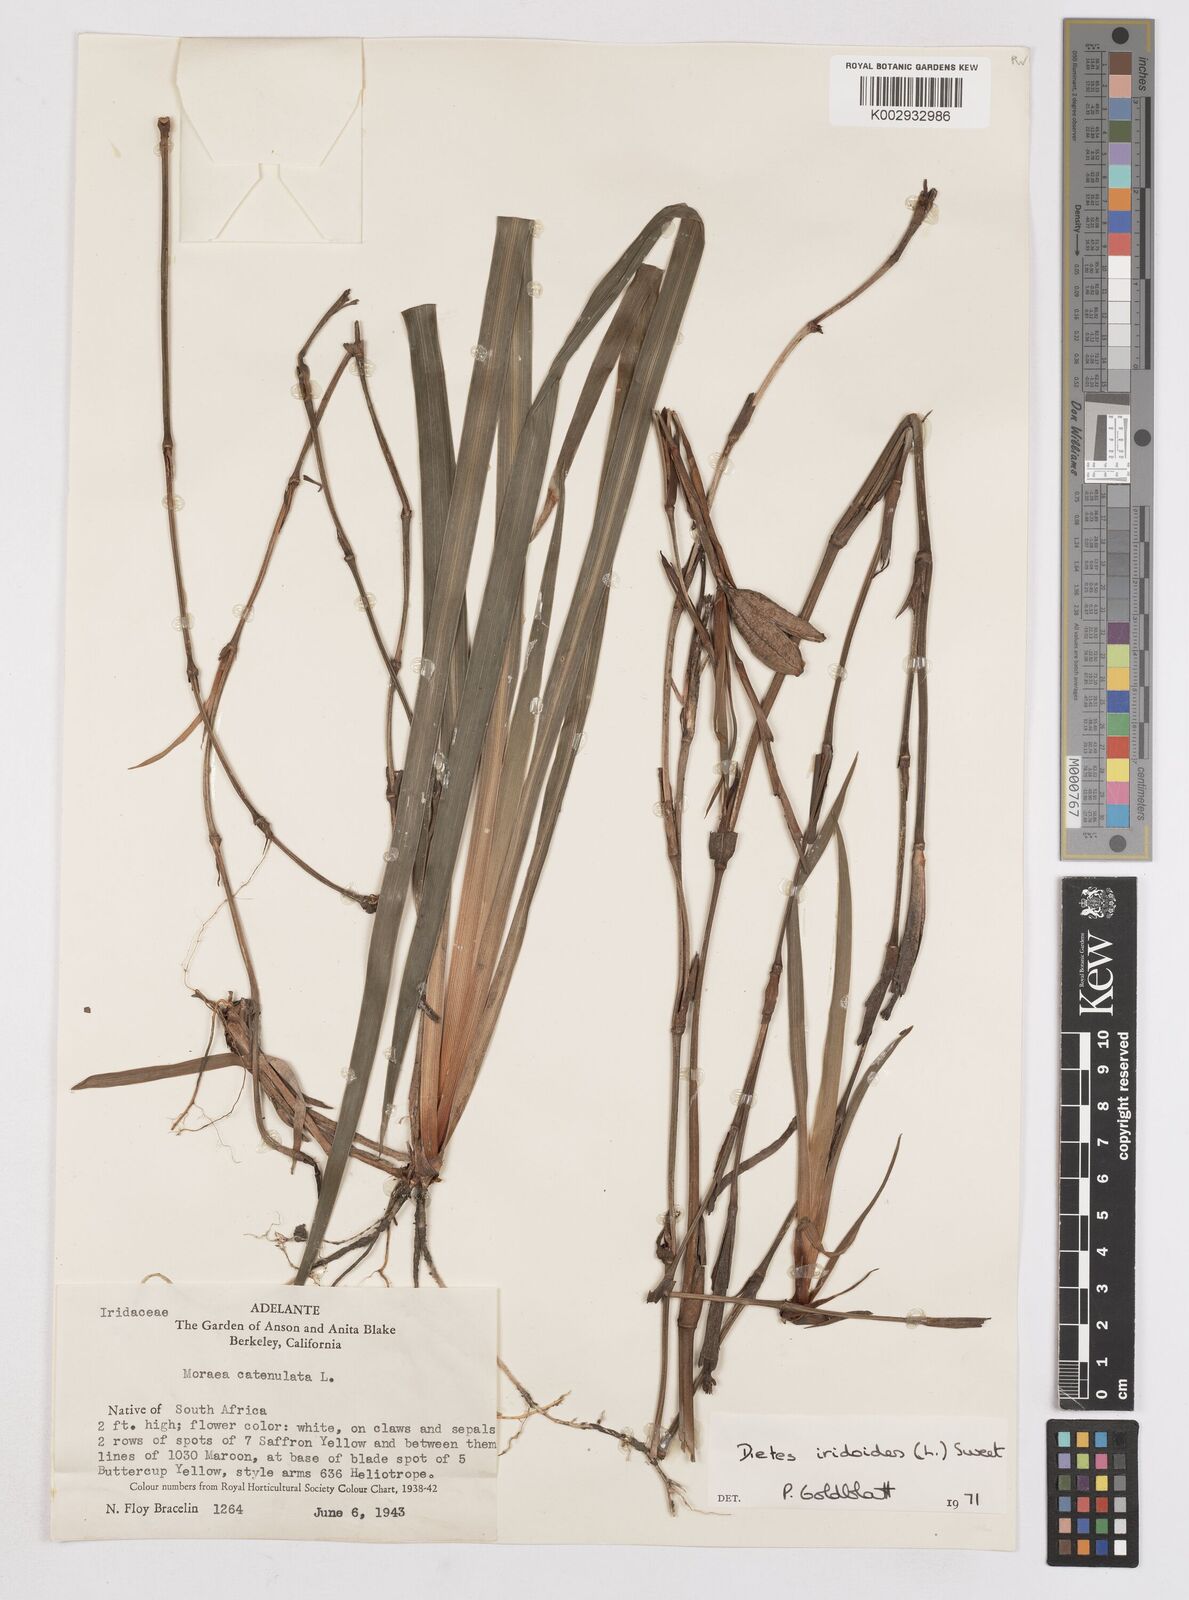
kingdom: Plantae
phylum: Tracheophyta
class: Liliopsida
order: Asparagales
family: Iridaceae
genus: Dietes
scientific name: Dietes iridioides
